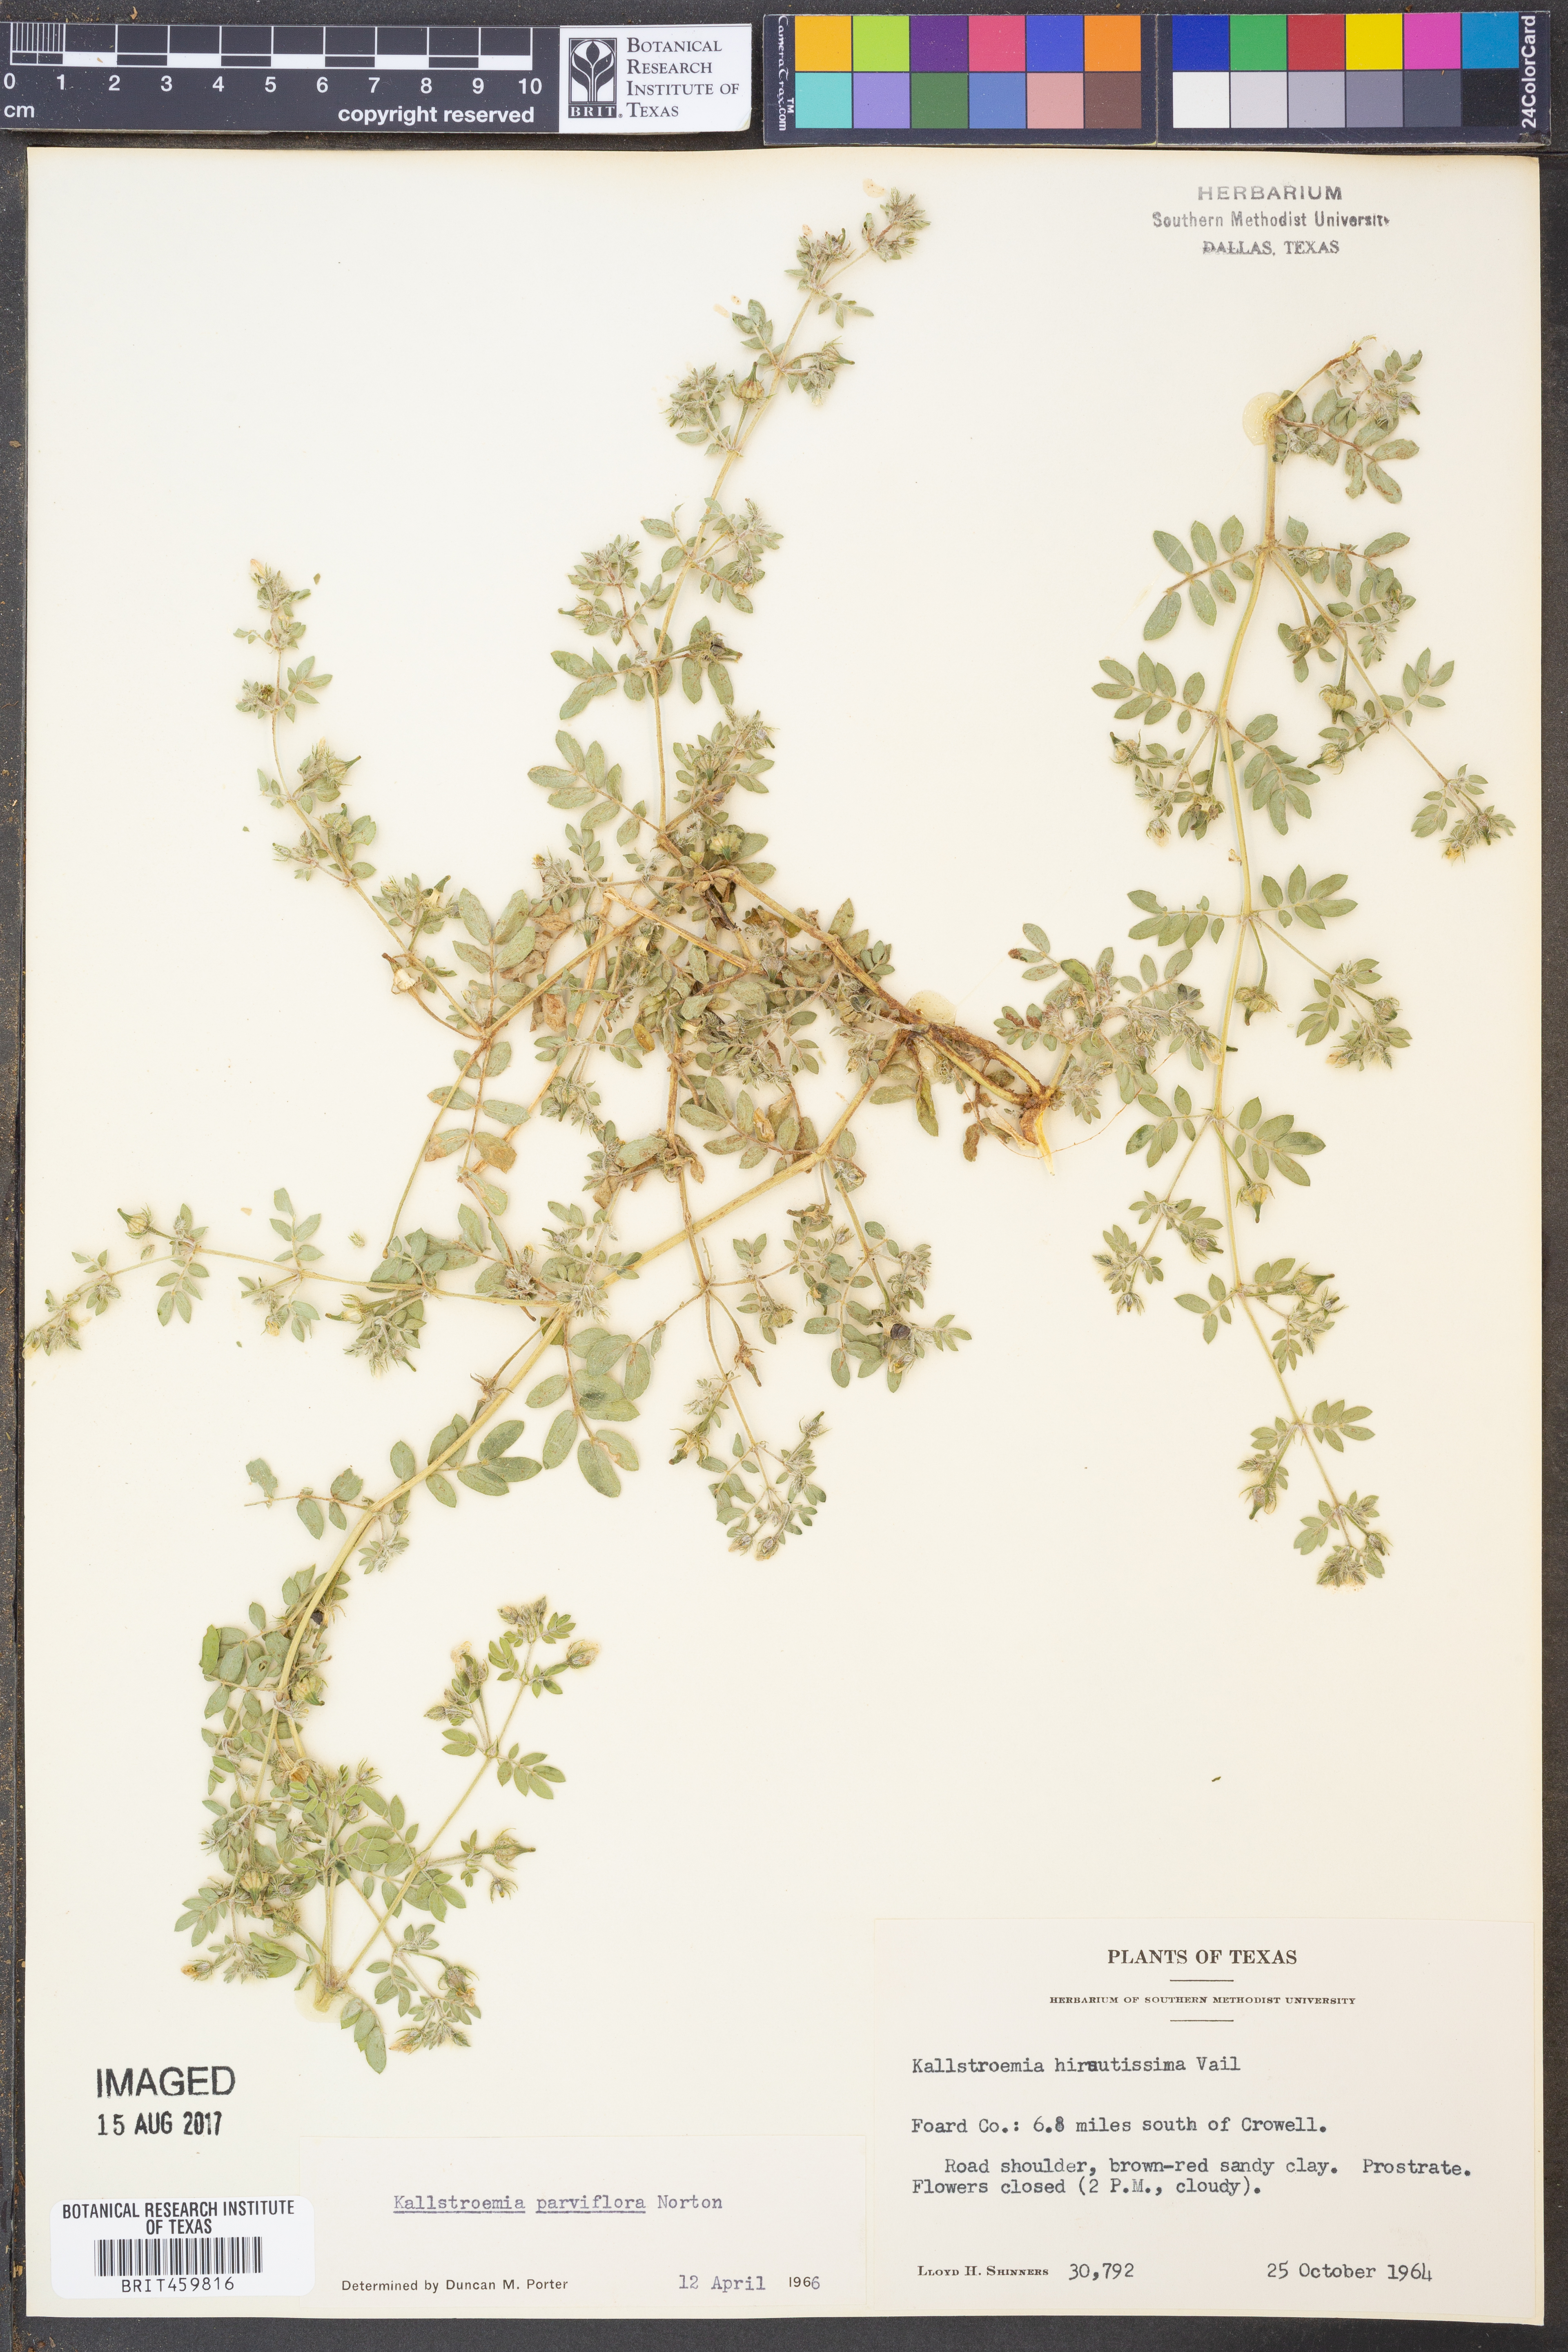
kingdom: Plantae
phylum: Tracheophyta
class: Magnoliopsida
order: Zygophyllales
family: Zygophyllaceae
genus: Kallstroemia
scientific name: Kallstroemia hirsutissima
